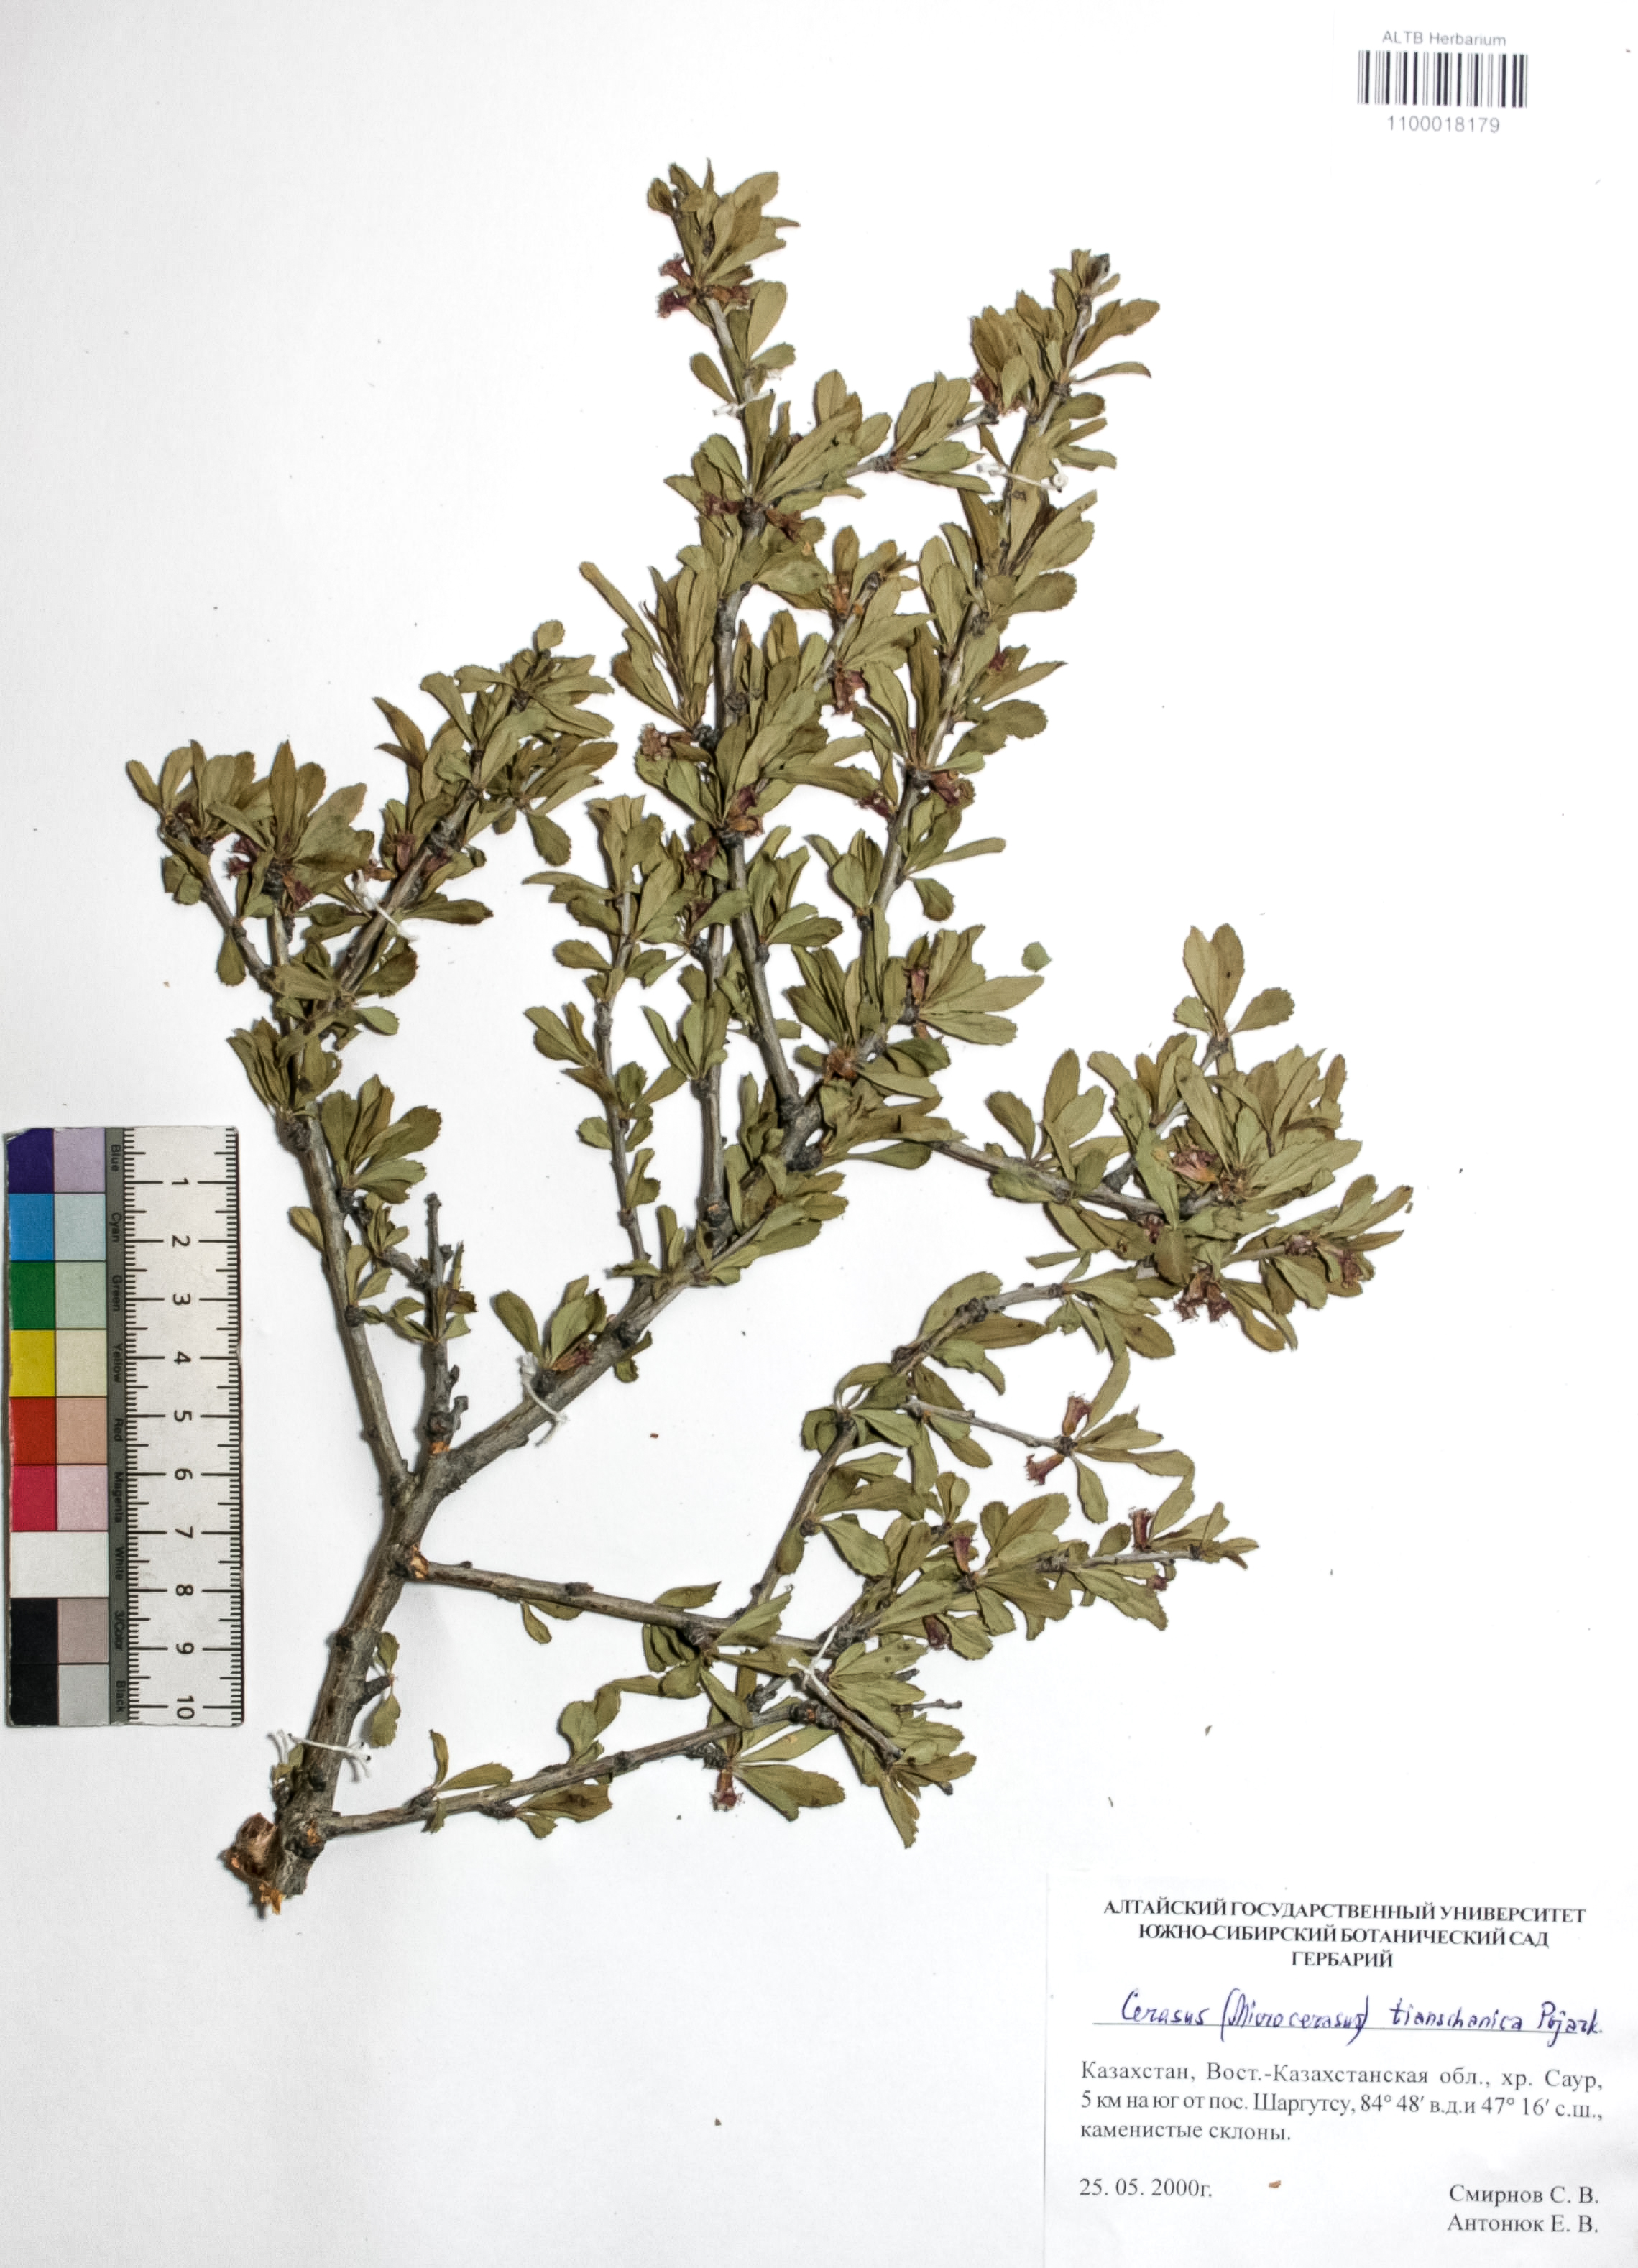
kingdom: Plantae
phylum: Tracheophyta
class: Magnoliopsida
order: Rosales
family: Rosaceae
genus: Prunus
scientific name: Prunus griffithii
